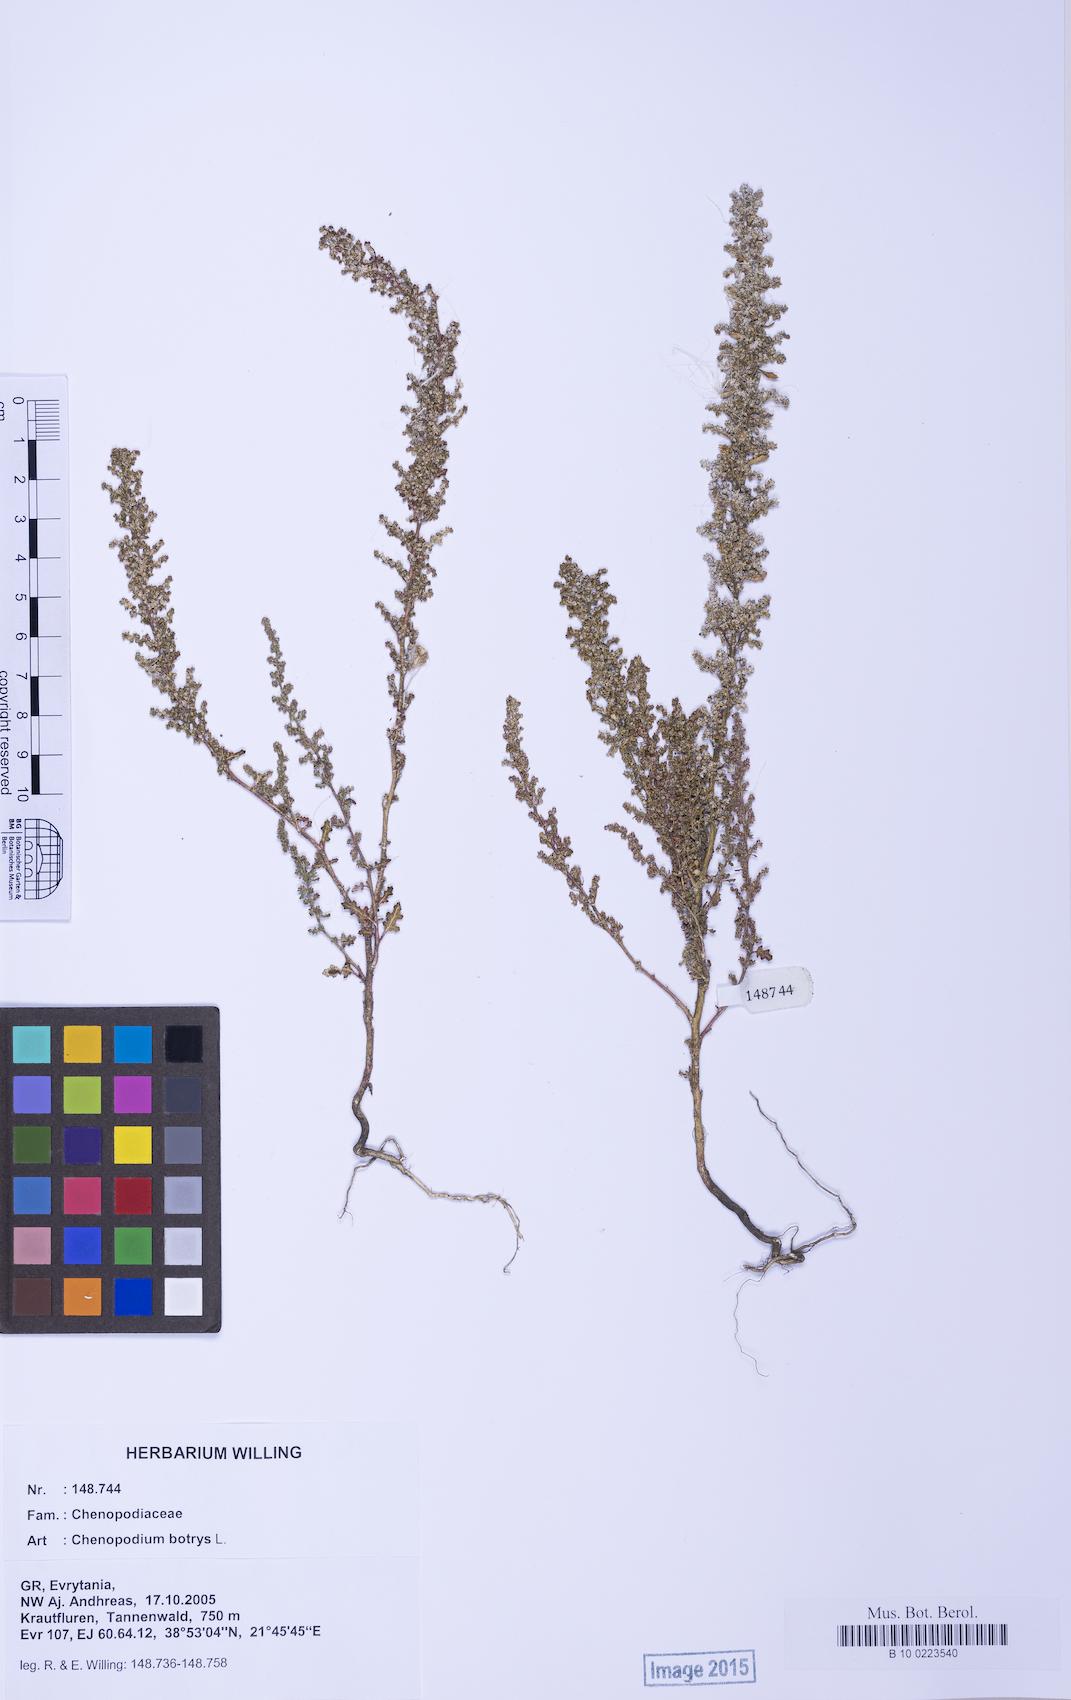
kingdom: Plantae
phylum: Tracheophyta
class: Magnoliopsida
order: Caryophyllales
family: Amaranthaceae
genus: Dysphania
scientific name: Dysphania botrys
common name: Feather-geranium
